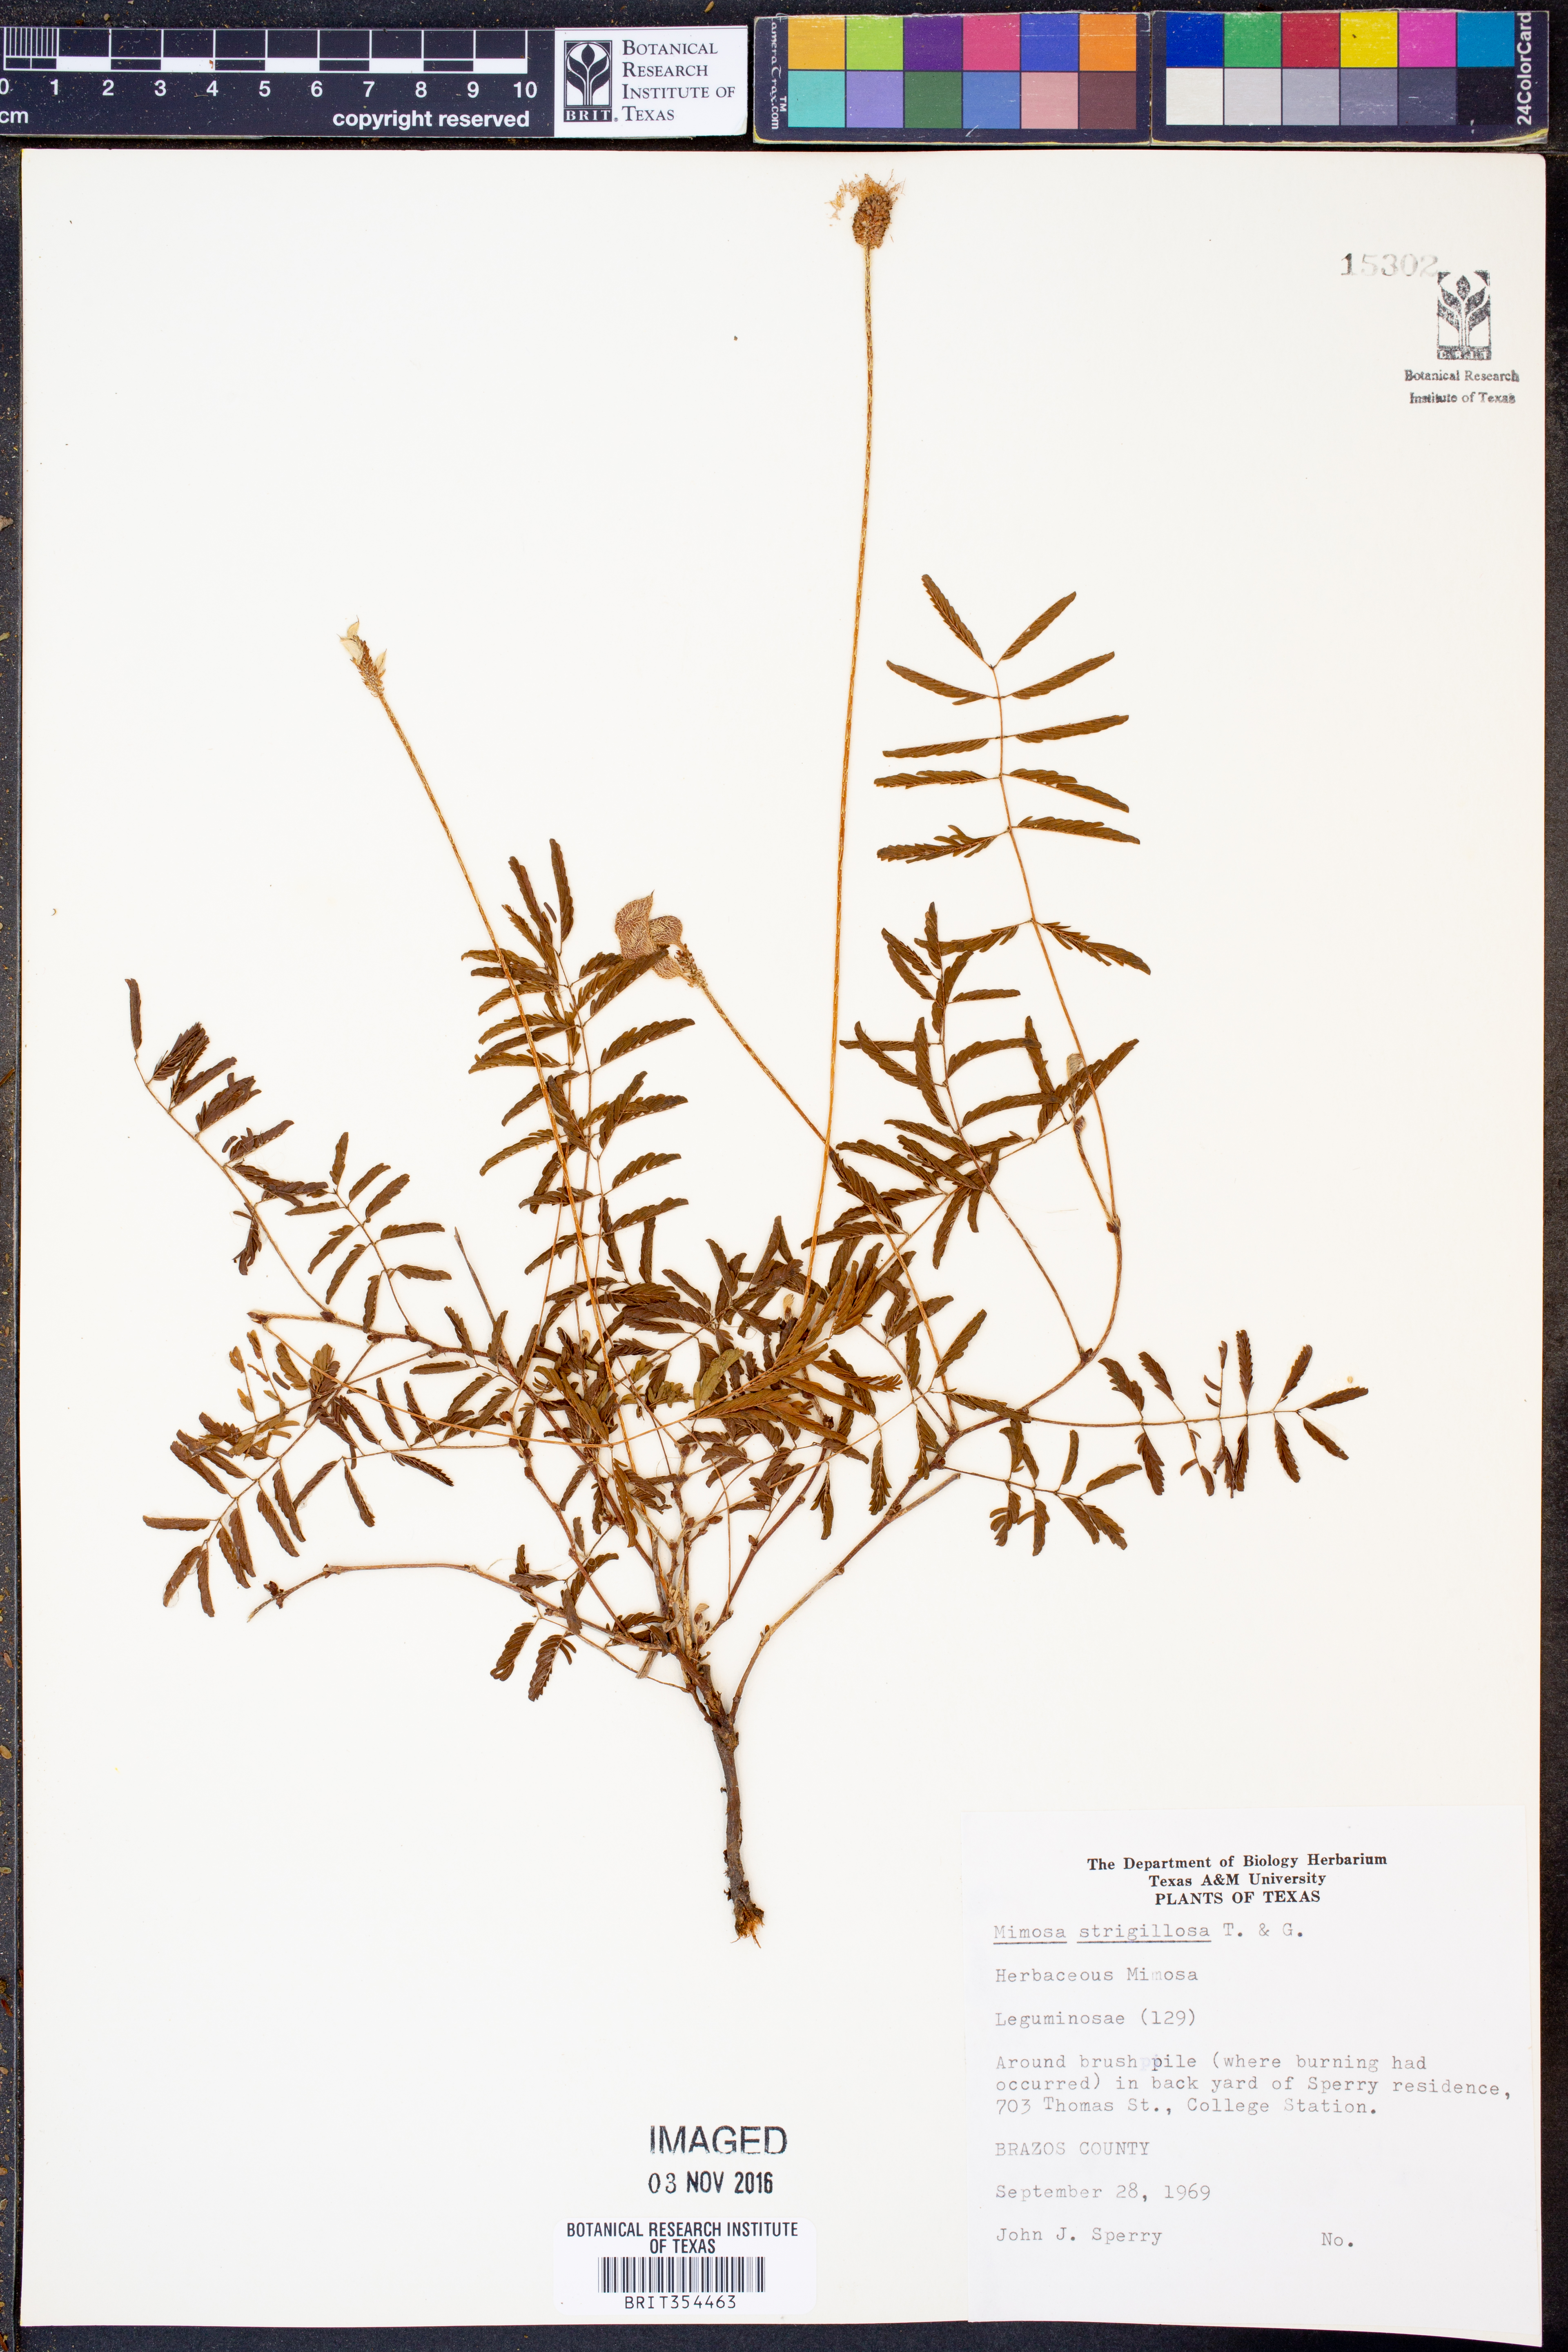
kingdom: Plantae
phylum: Tracheophyta
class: Magnoliopsida
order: Fabales
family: Fabaceae
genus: Mimosa
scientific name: Mimosa strigillosa
